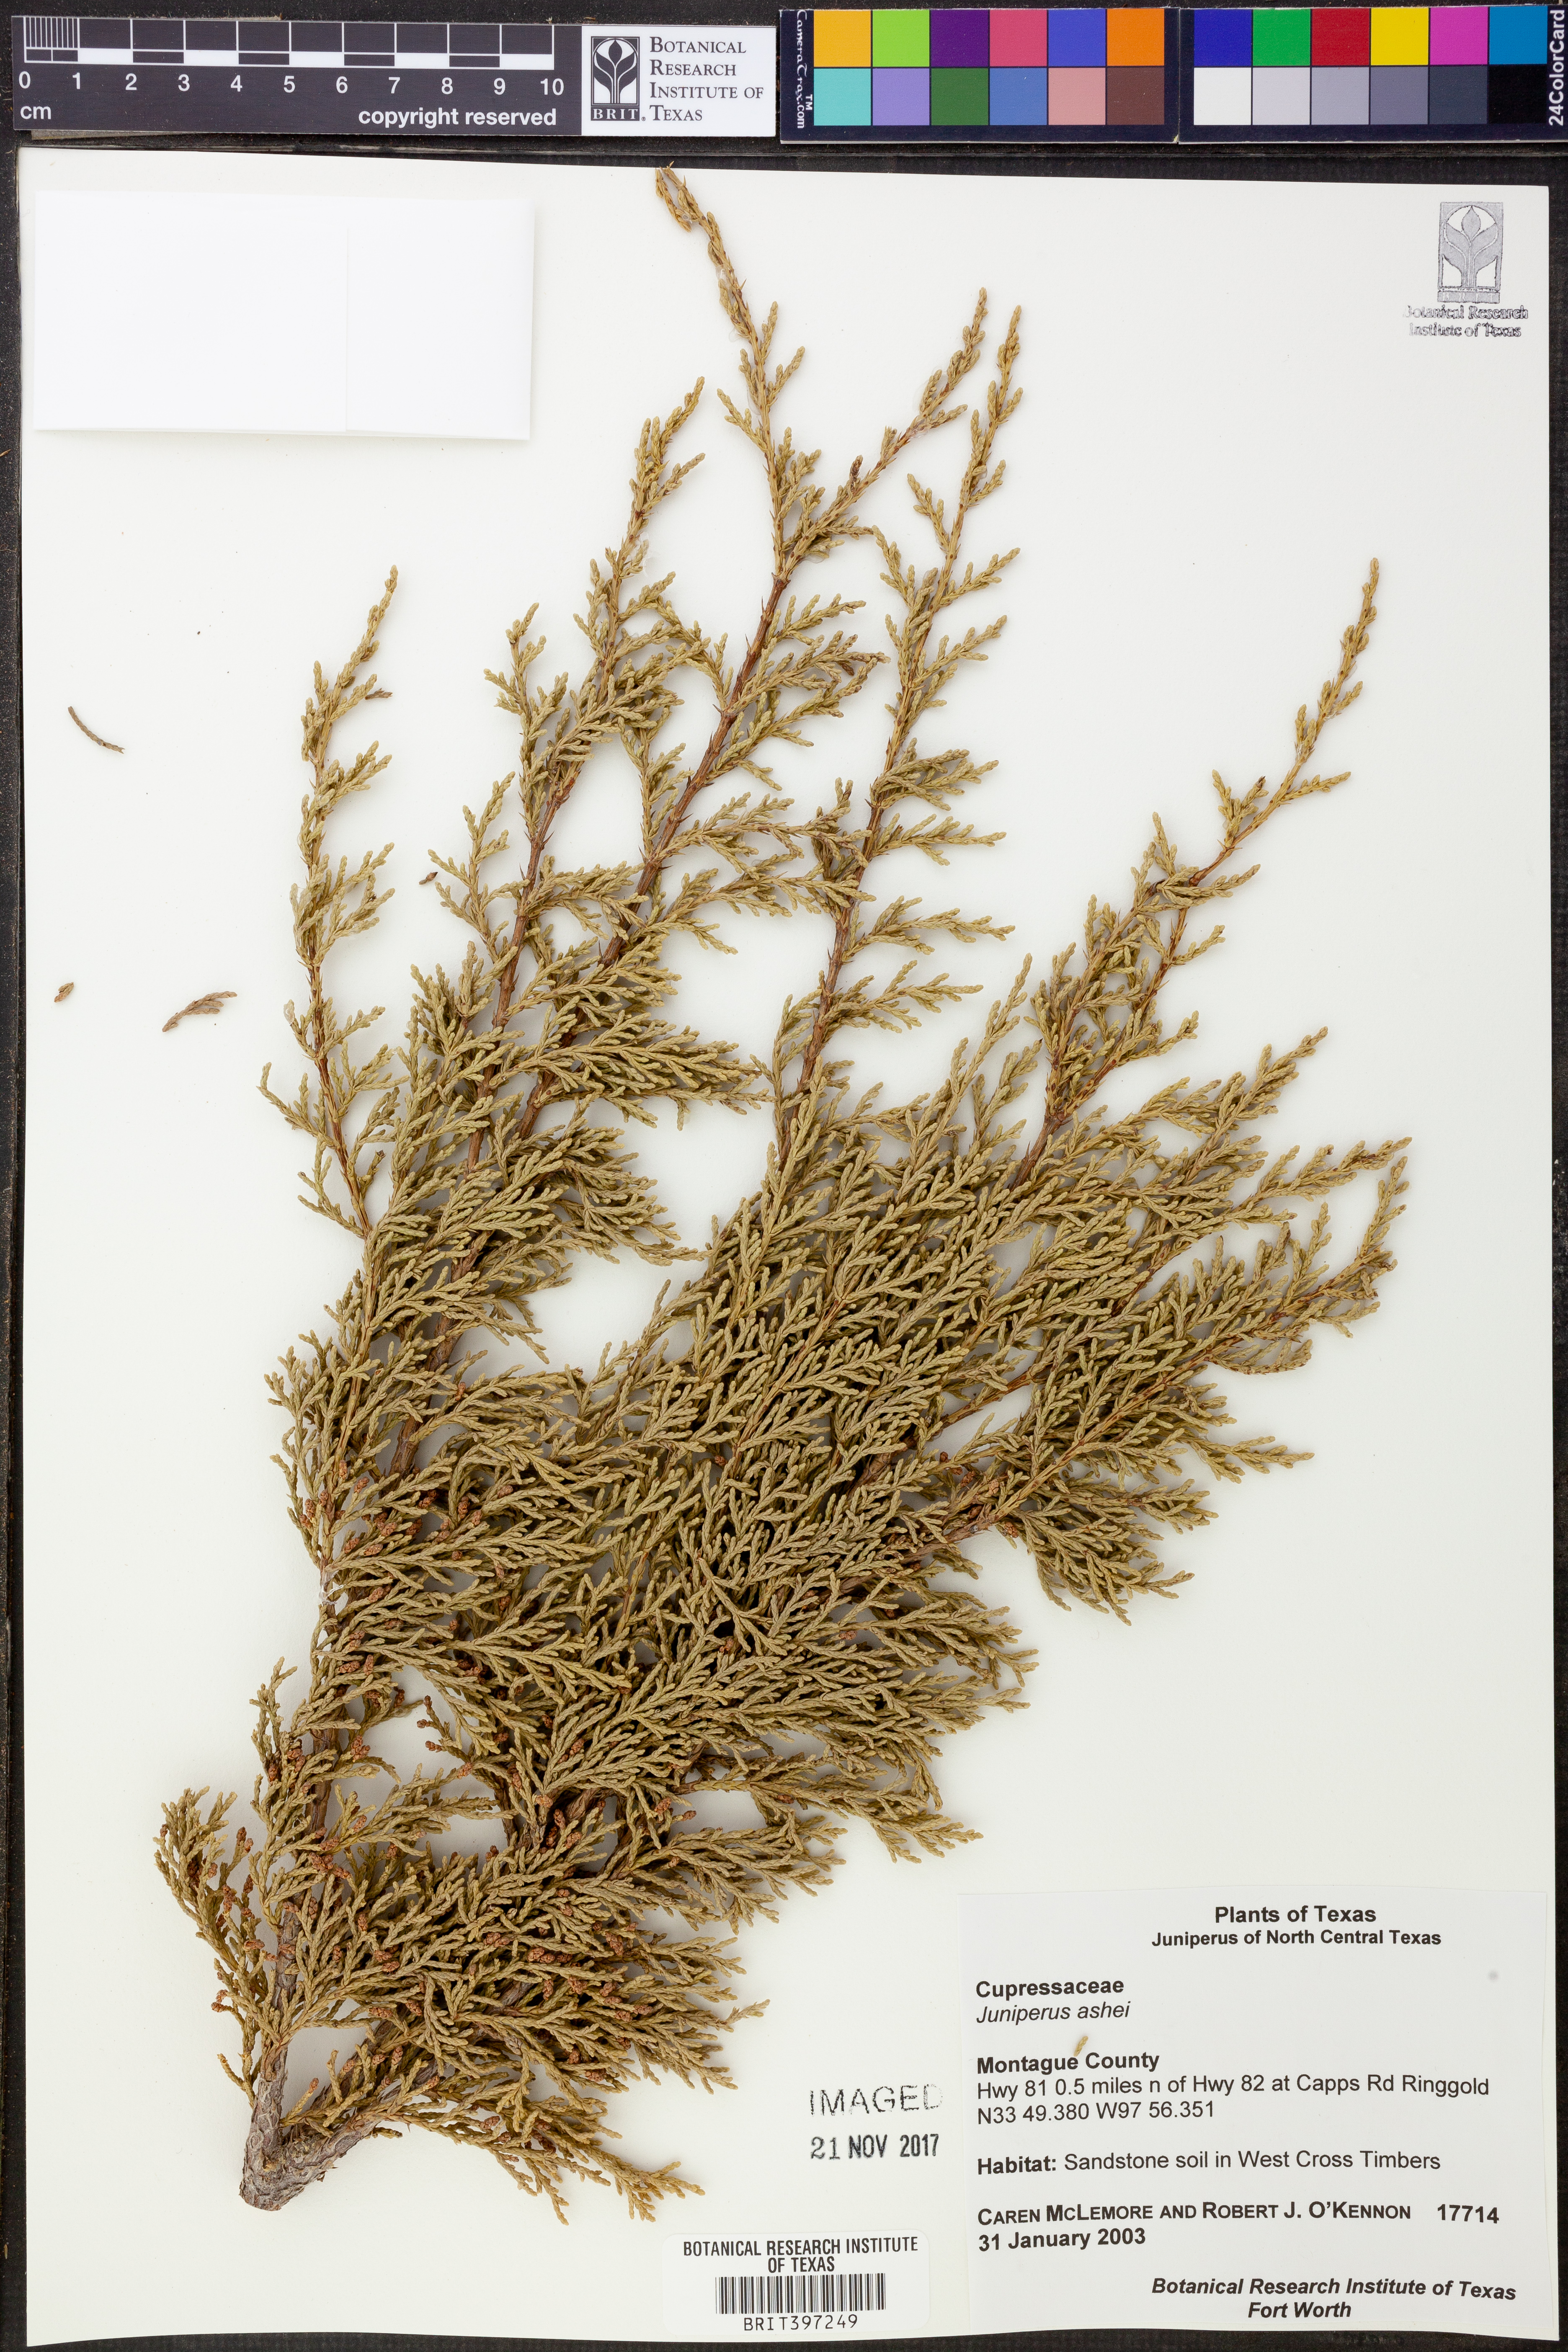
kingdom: Plantae
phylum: Tracheophyta
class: Pinopsida
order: Pinales
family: Cupressaceae
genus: Juniperus
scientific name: Juniperus ashei
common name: Mexican juniper
